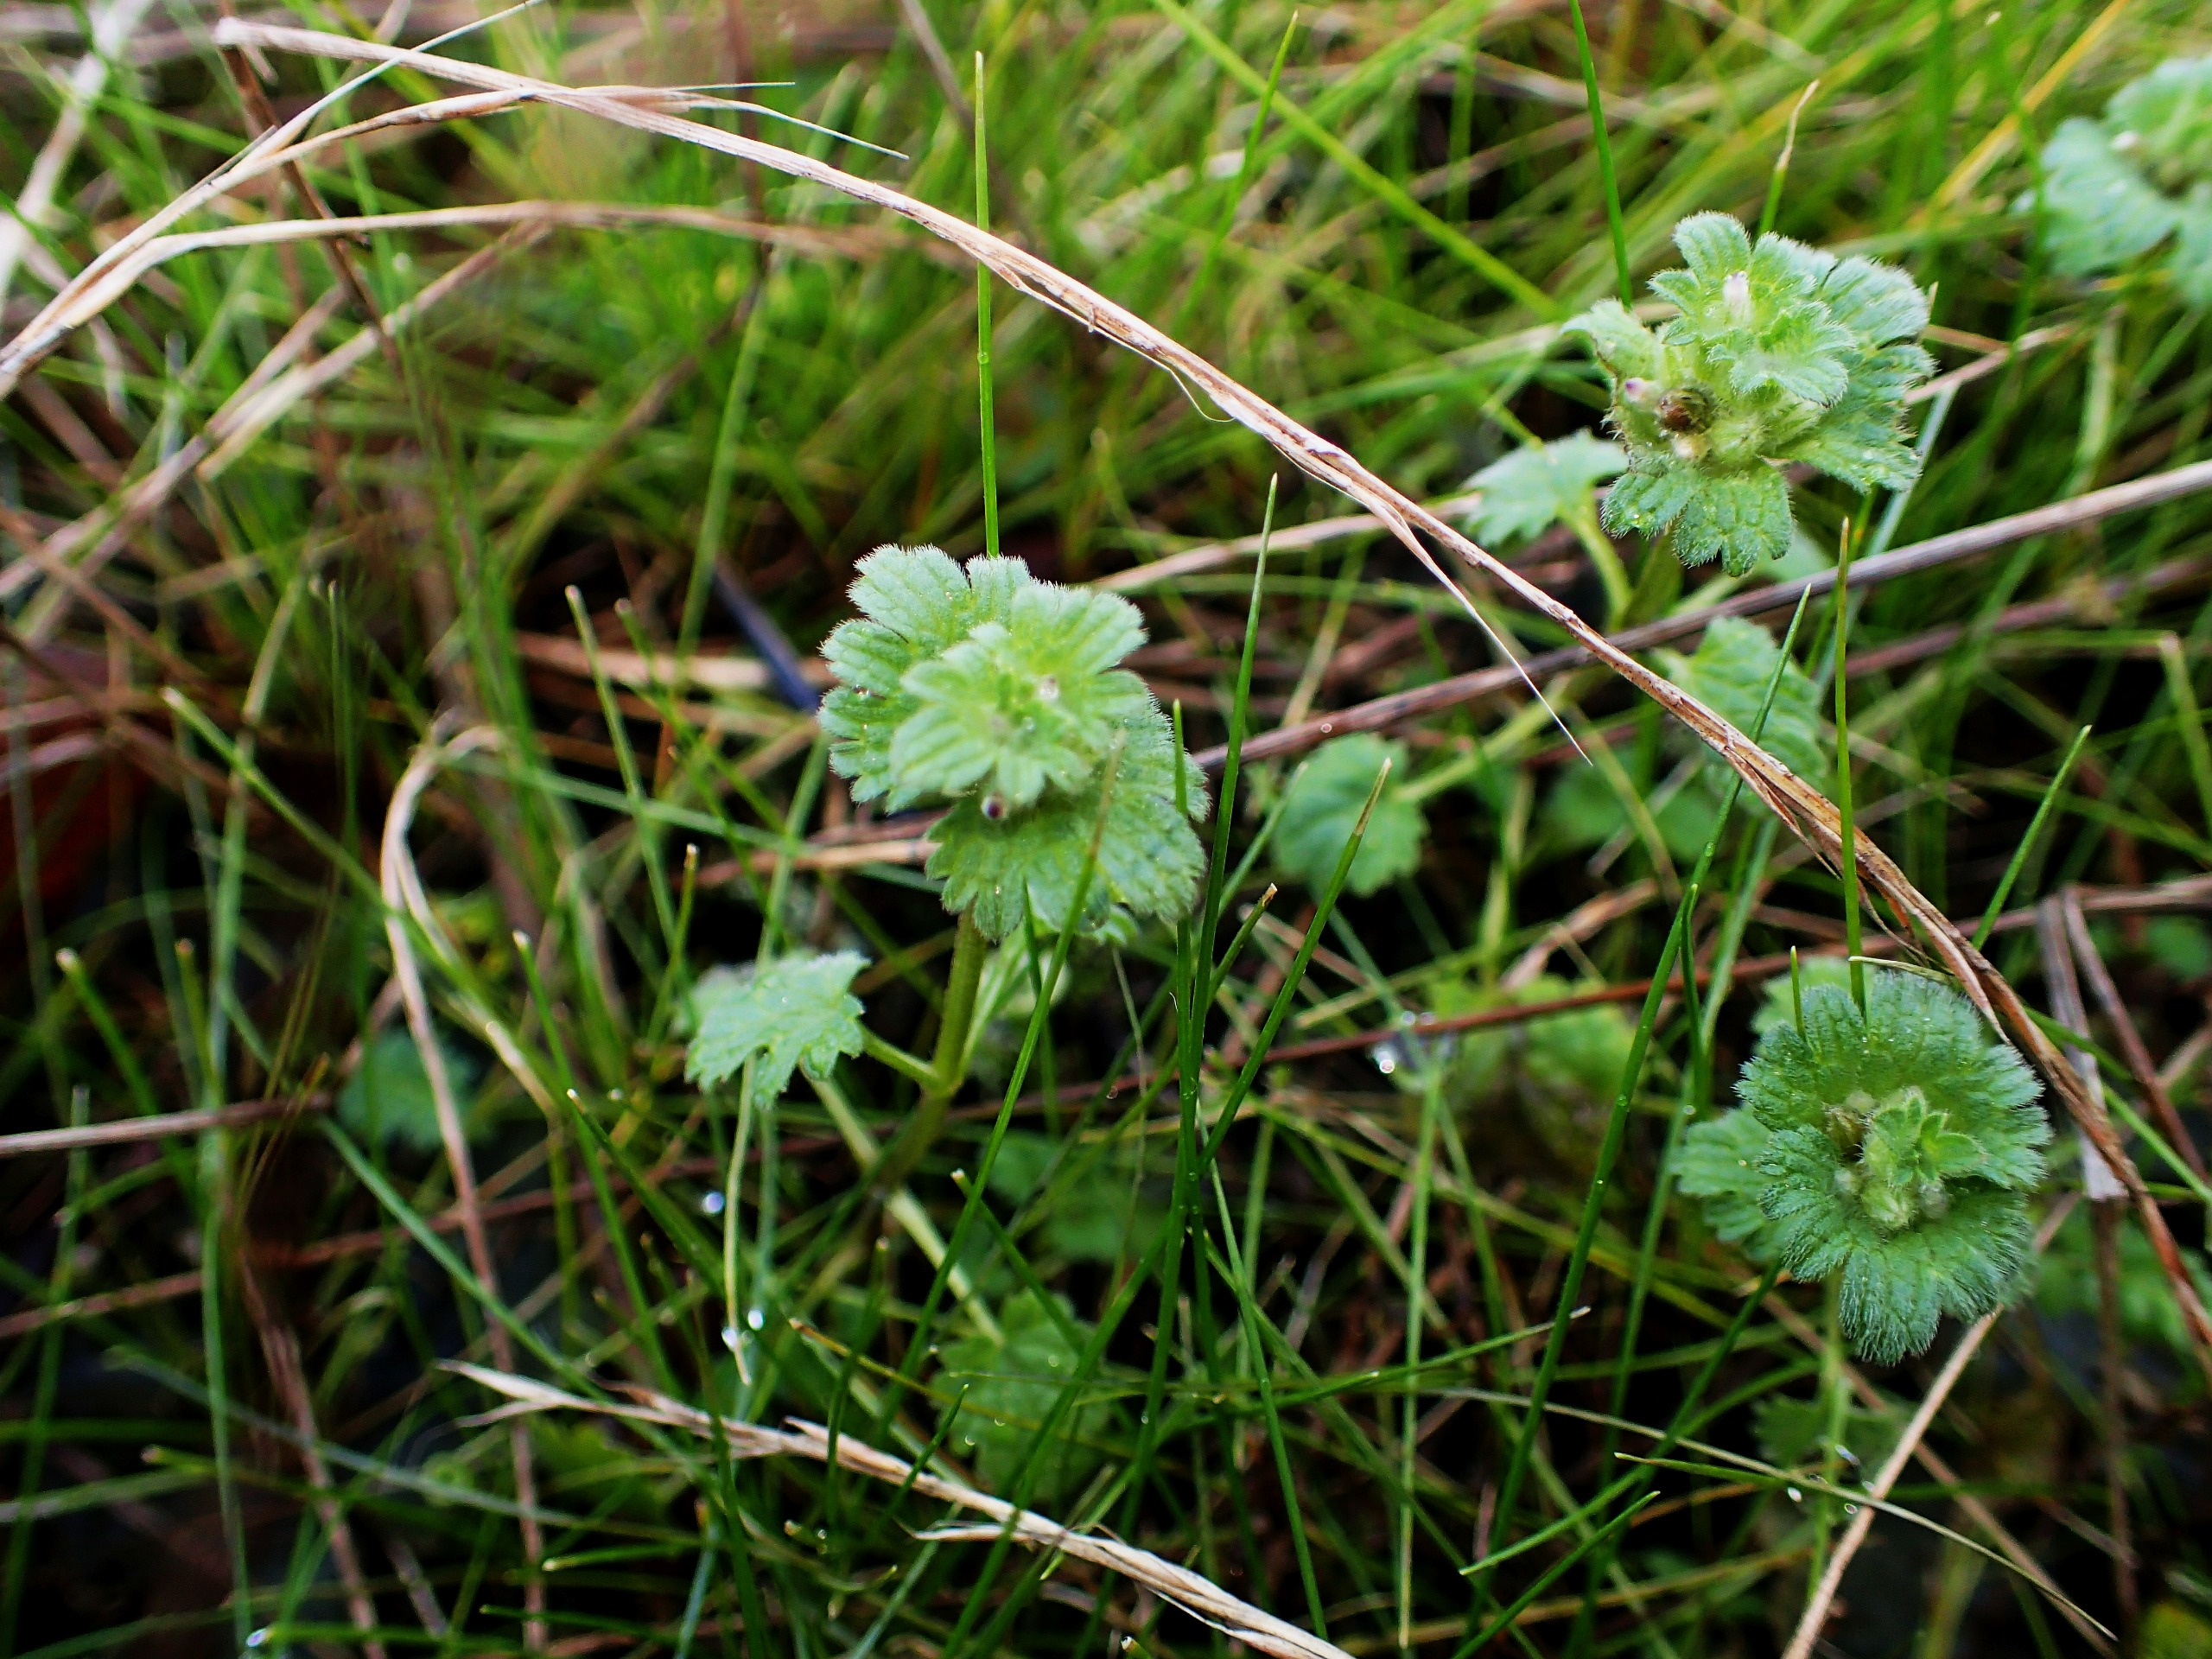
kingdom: Plantae
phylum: Tracheophyta
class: Magnoliopsida
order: Lamiales
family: Lamiaceae
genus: Lamium
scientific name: Lamium amplexicaule
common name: Liden tvetand
